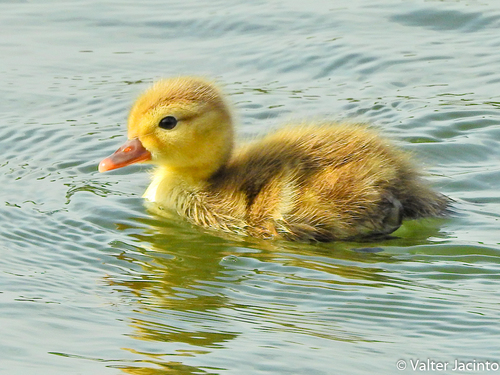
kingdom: Animalia
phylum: Chordata
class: Aves
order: Anseriformes
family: Anatidae
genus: Netta
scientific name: Netta rufina
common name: Red-crested pochard
